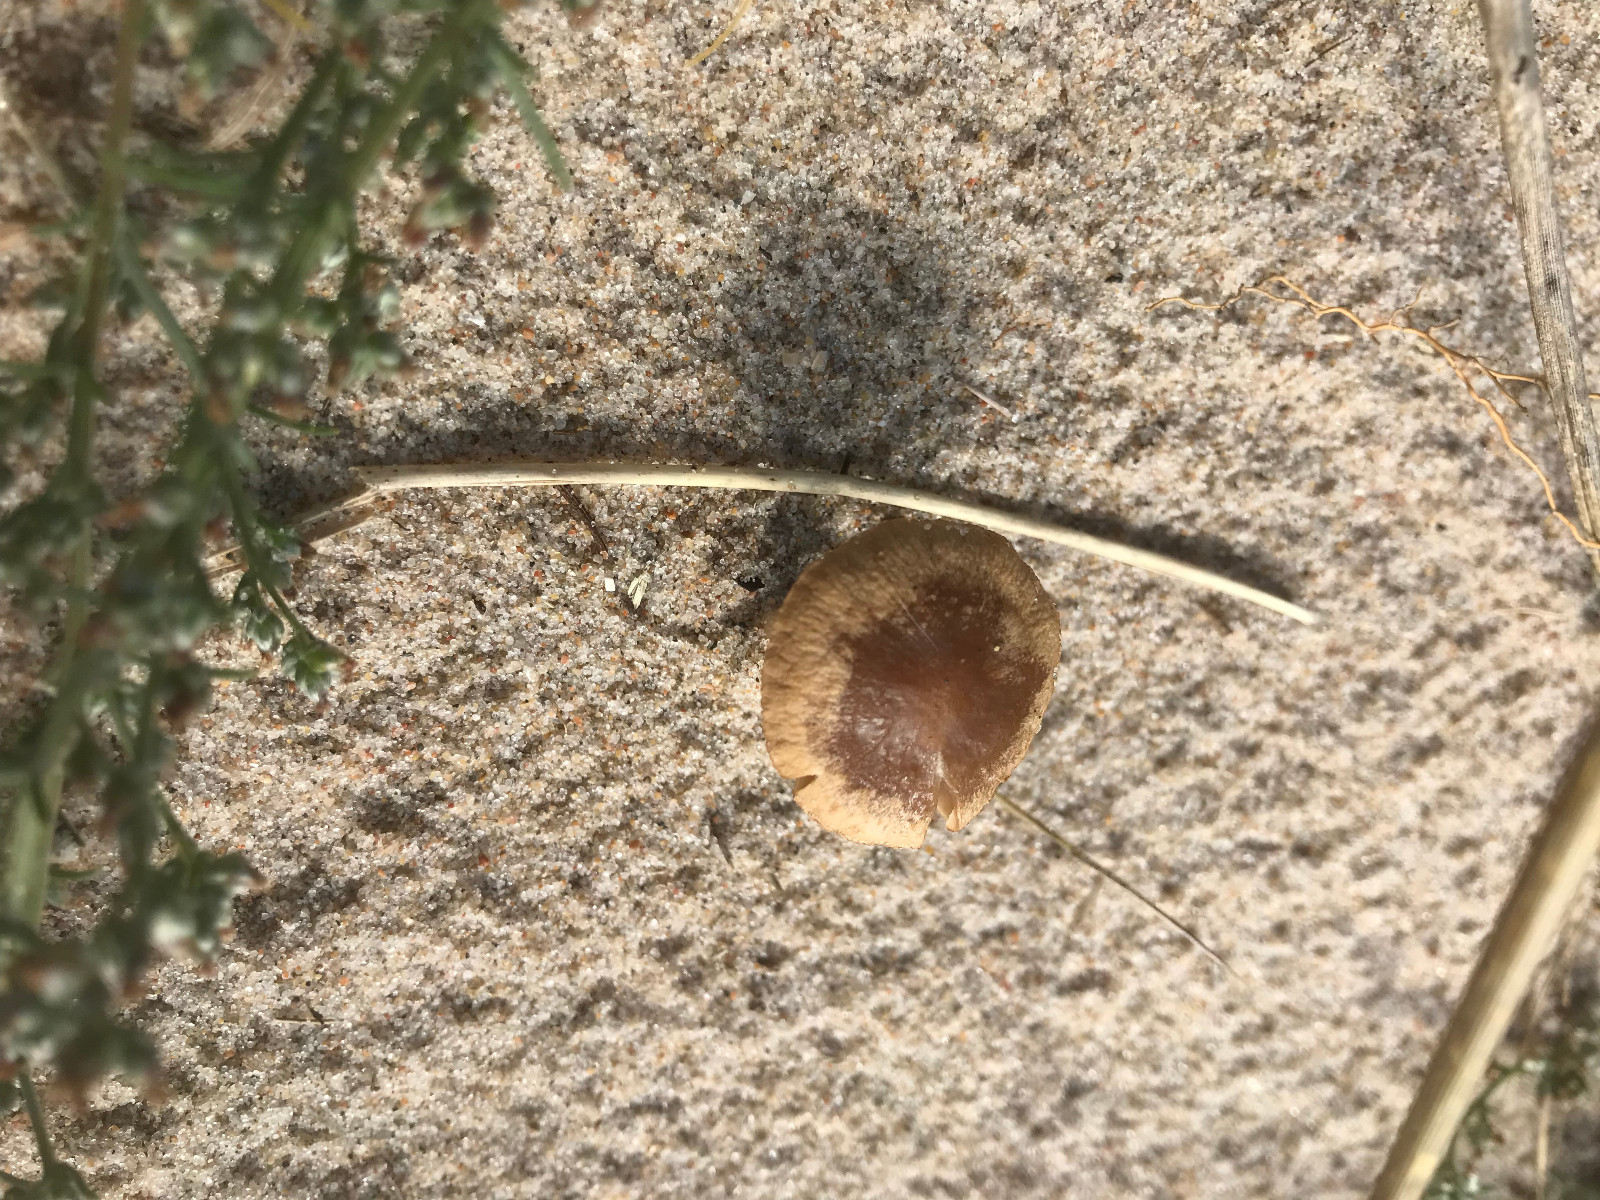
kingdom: Fungi
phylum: Basidiomycota
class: Agaricomycetes
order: Agaricales
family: Psathyrellaceae
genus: Psathyrella
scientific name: Psathyrella ammophila
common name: klit-mørkhat
